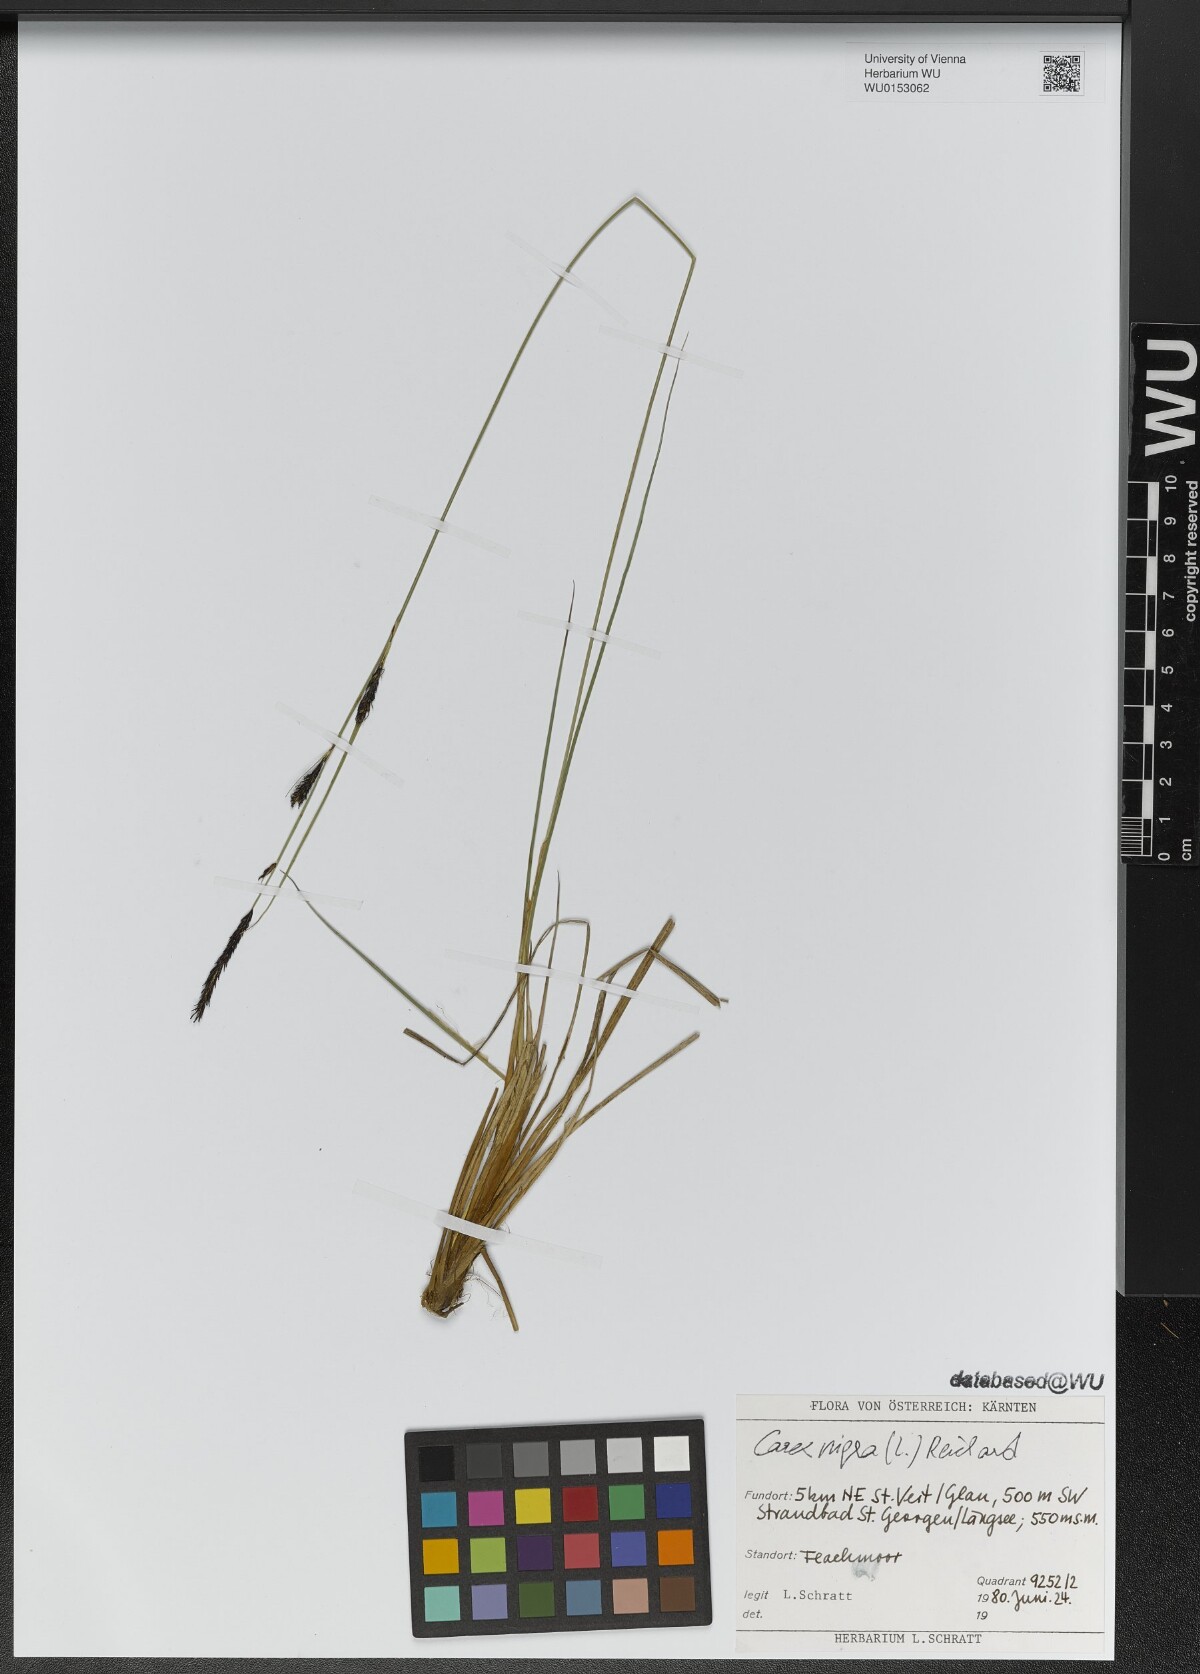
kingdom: Plantae
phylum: Tracheophyta
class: Liliopsida
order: Poales
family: Cyperaceae
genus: Carex
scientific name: Carex nigra
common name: Common sedge
